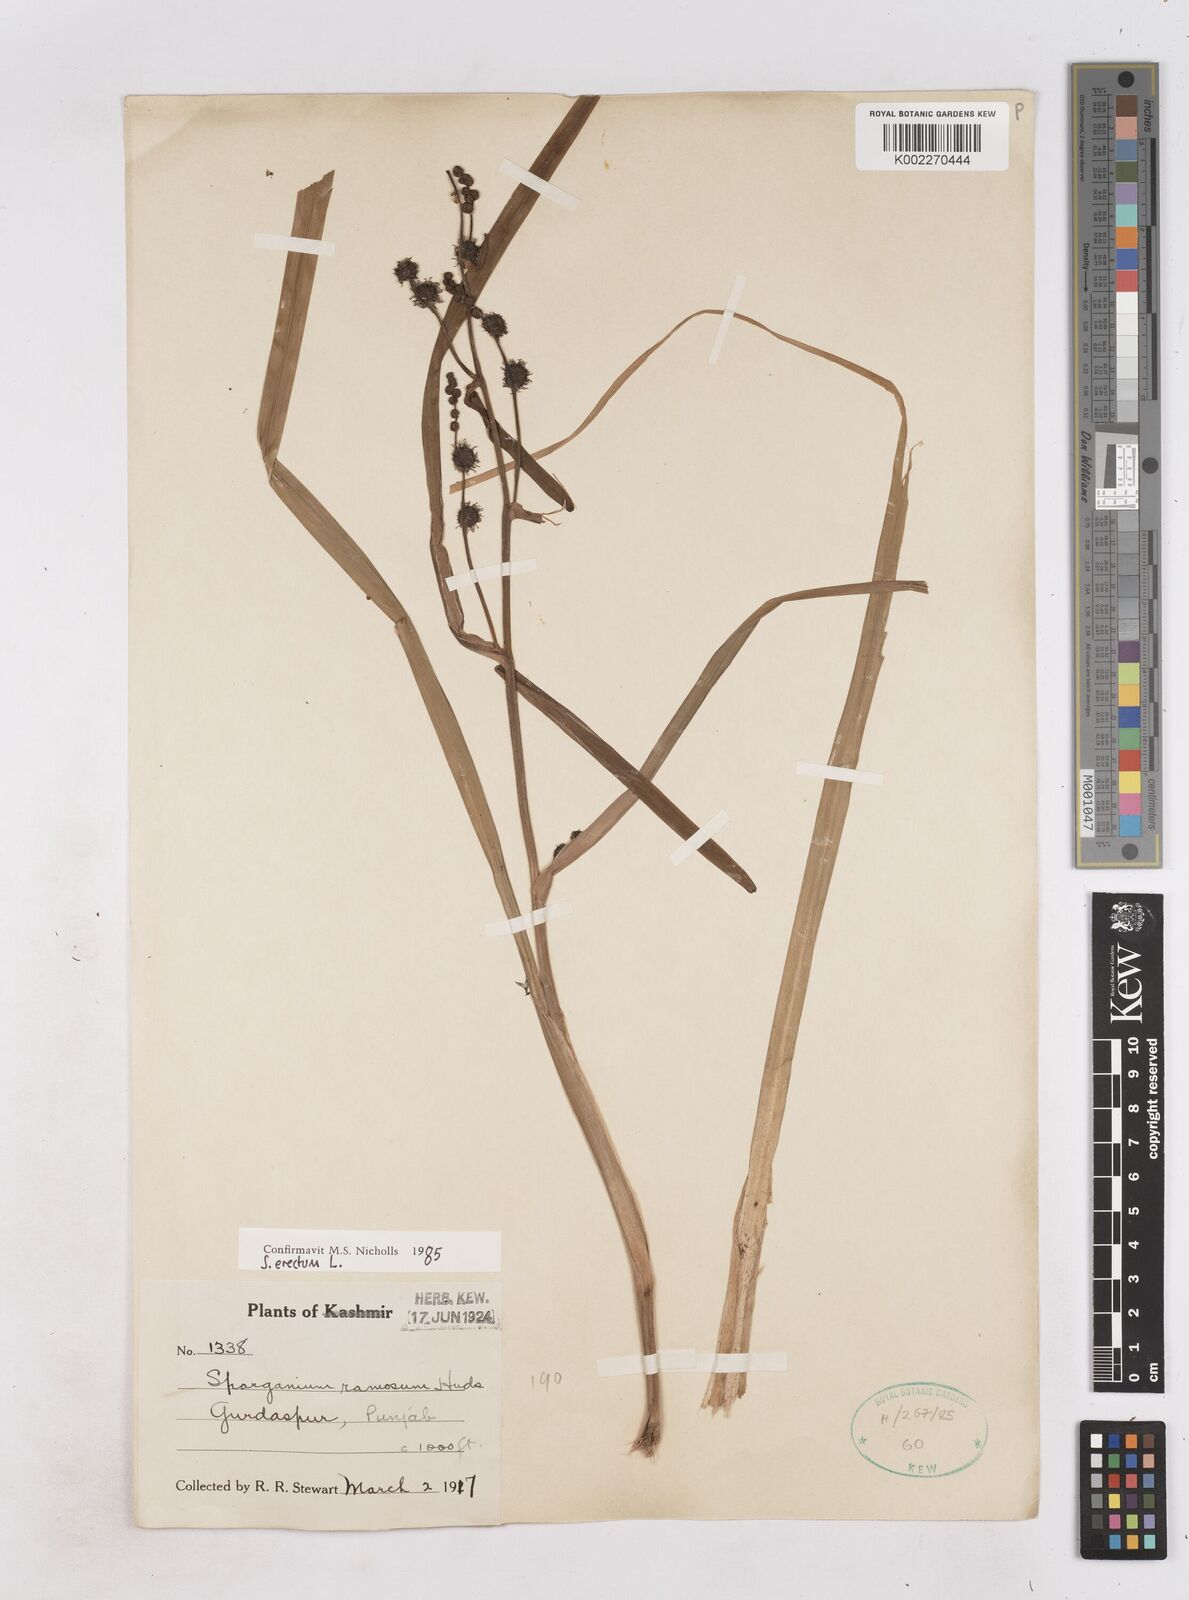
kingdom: Plantae
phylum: Tracheophyta
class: Liliopsida
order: Poales
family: Typhaceae
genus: Sparganium
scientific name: Sparganium erectum
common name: Branched bur-reed
